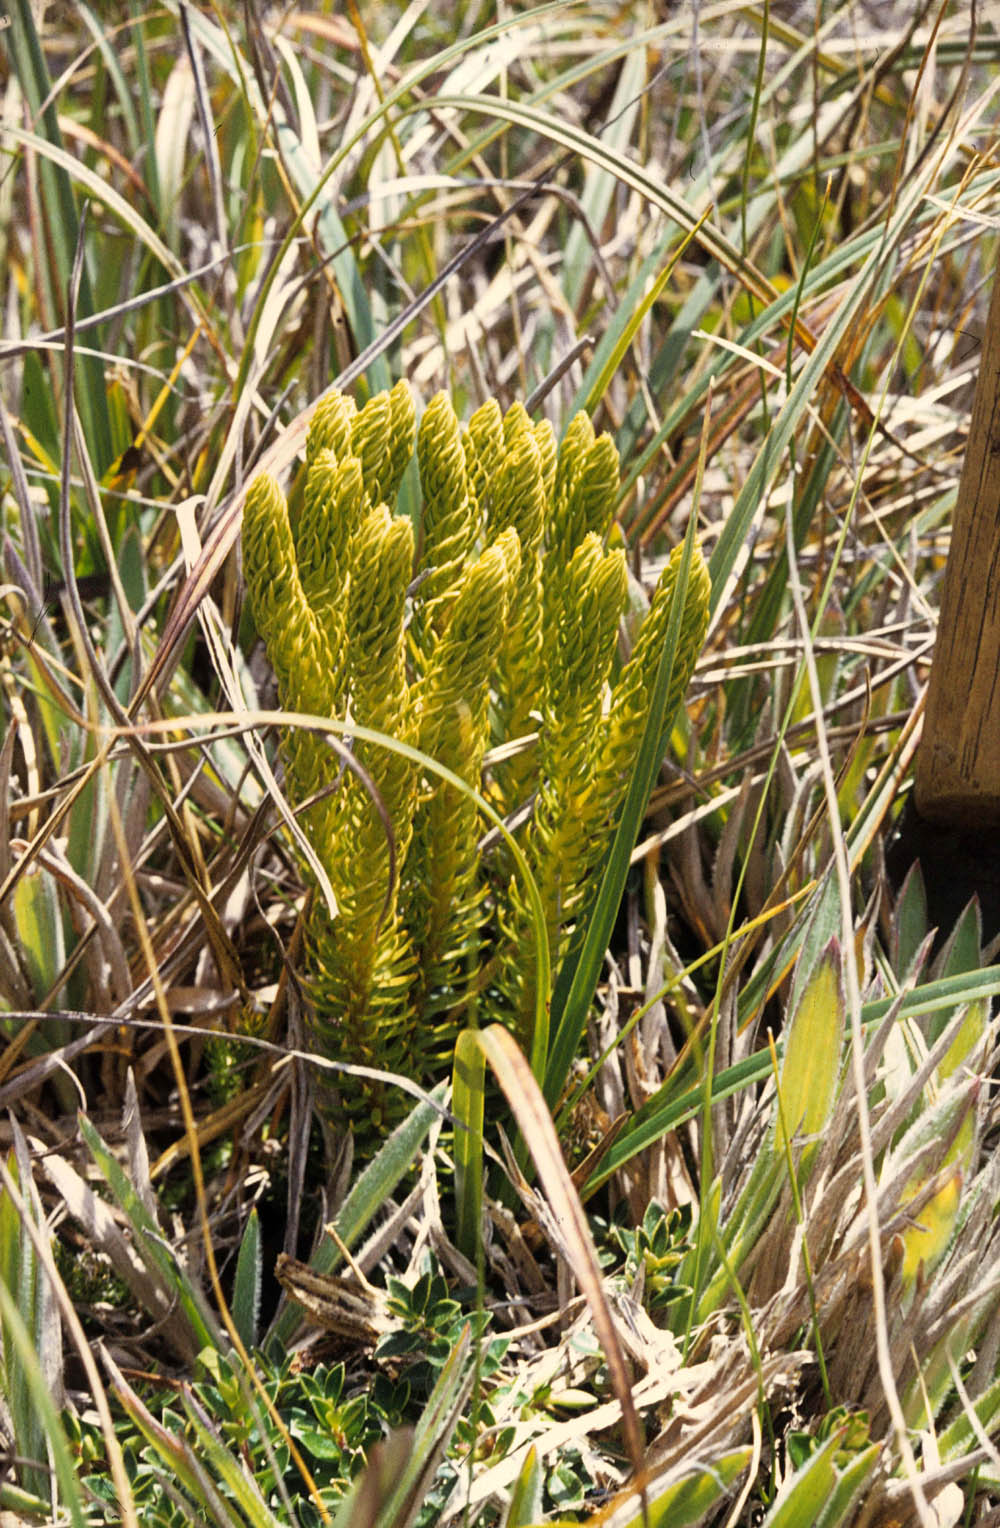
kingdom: Plantae
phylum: Tracheophyta
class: Lycopodiopsida
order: Lycopodiales
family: Lycopodiaceae
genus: Phlegmariurus
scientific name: Phlegmariurus capellae
